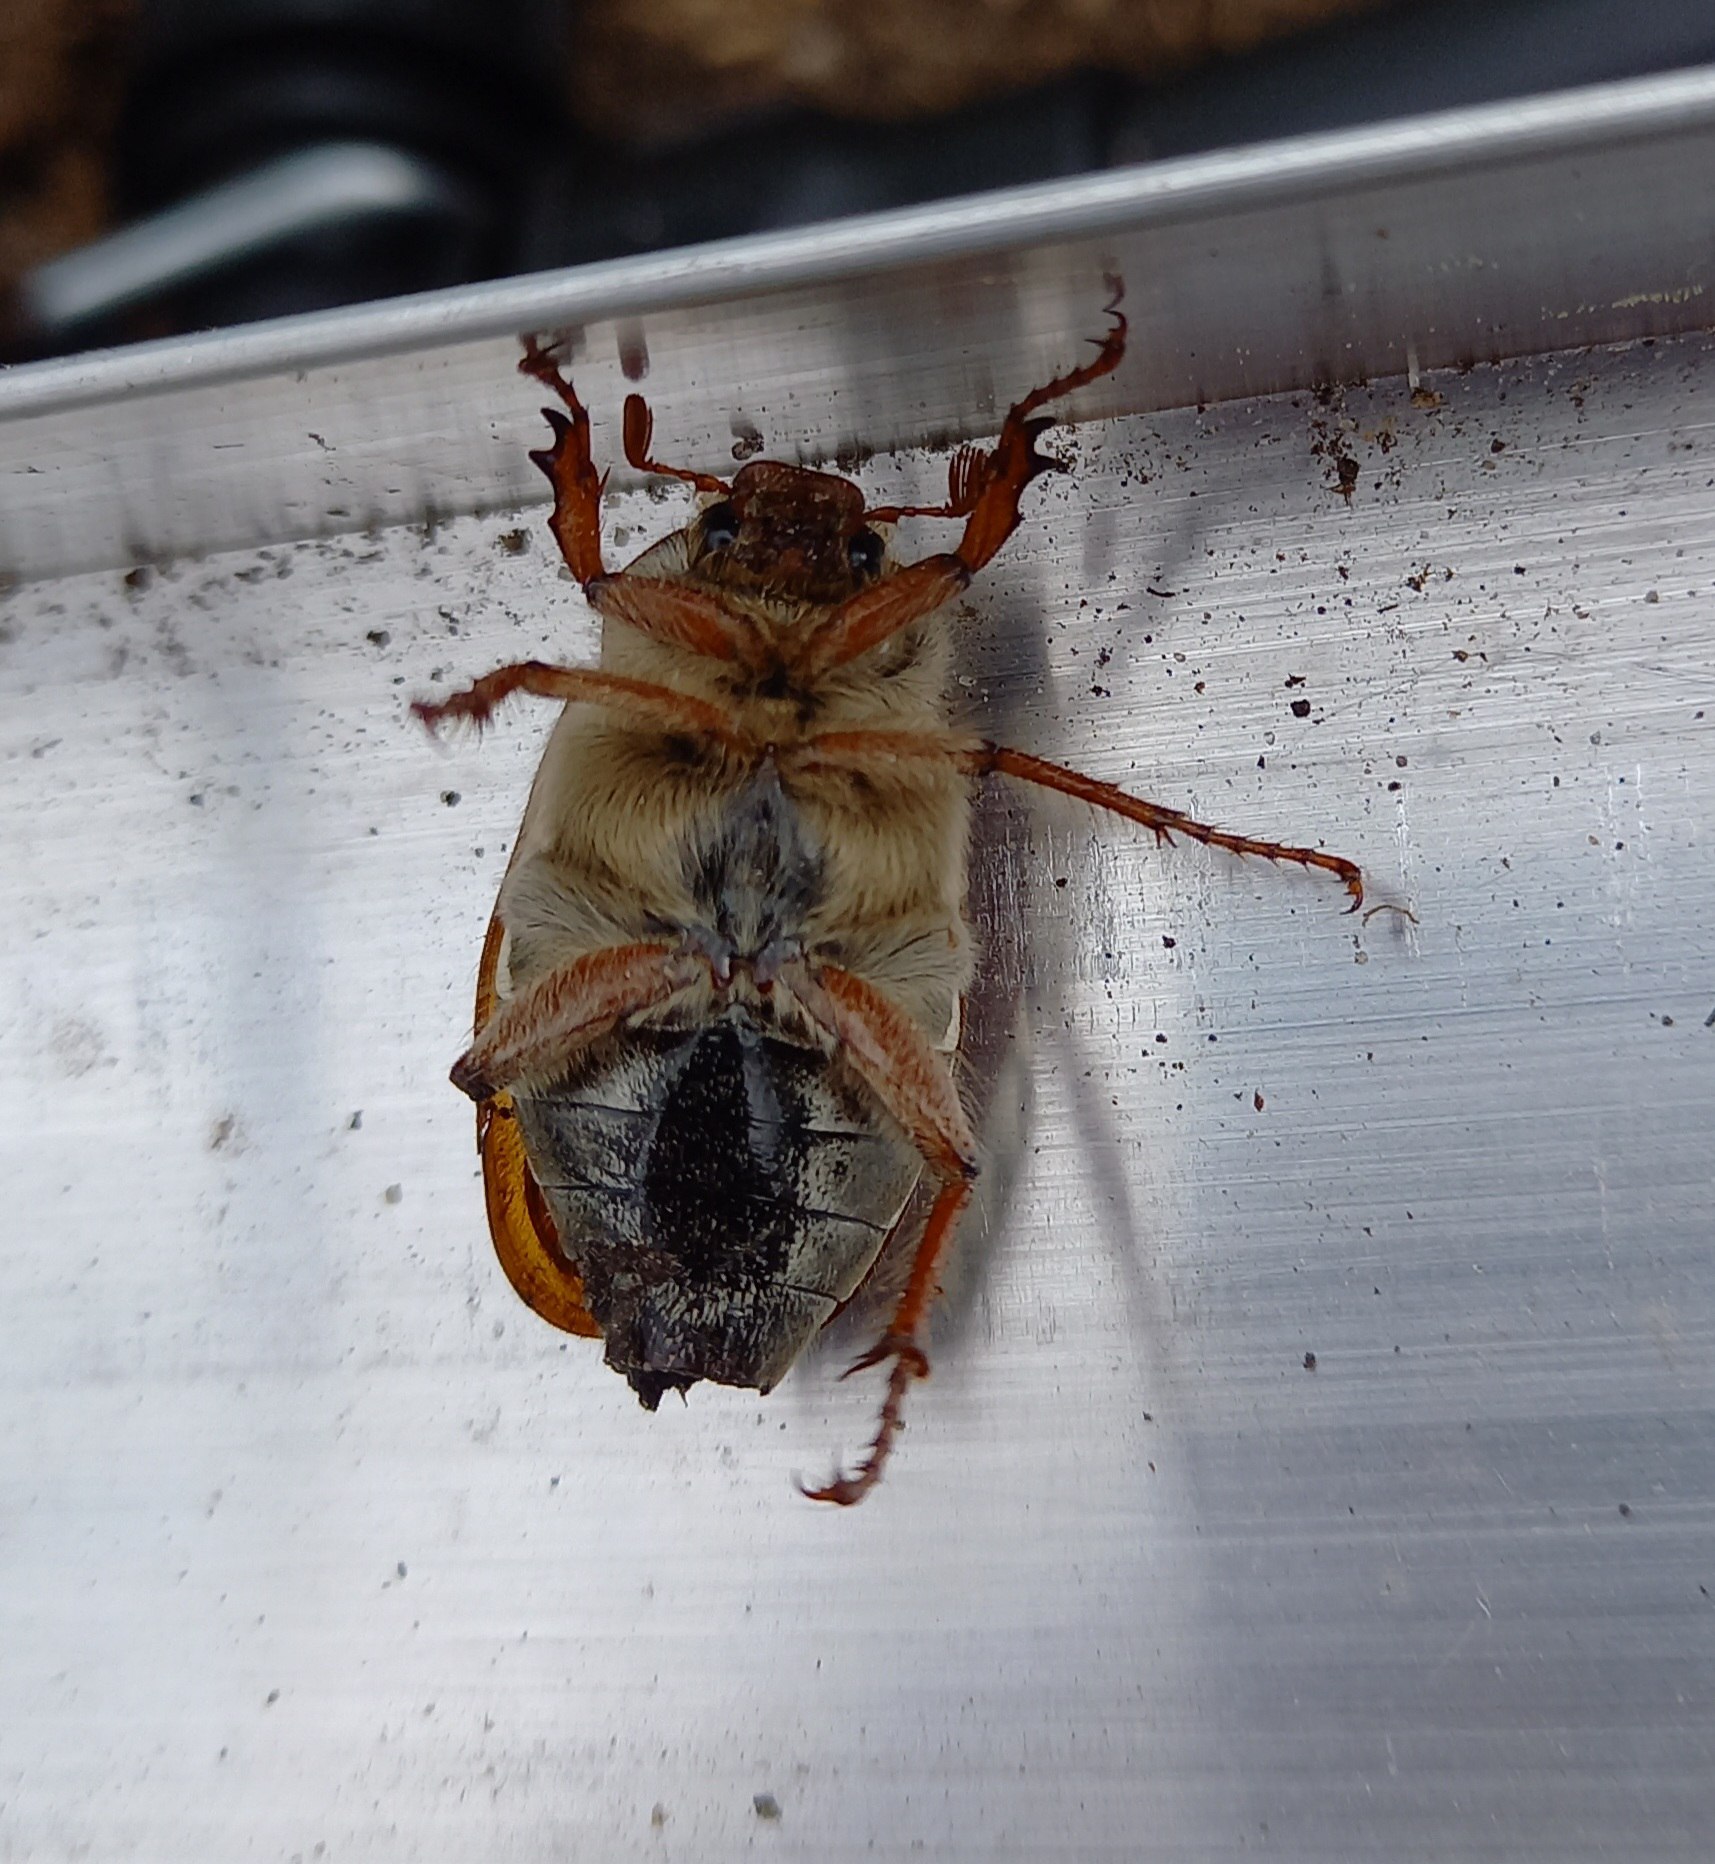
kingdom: Animalia
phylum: Arthropoda
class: Insecta
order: Coleoptera
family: Scarabaeidae
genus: Melolontha
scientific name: Melolontha melolontha
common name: Almindelig oldenborre
